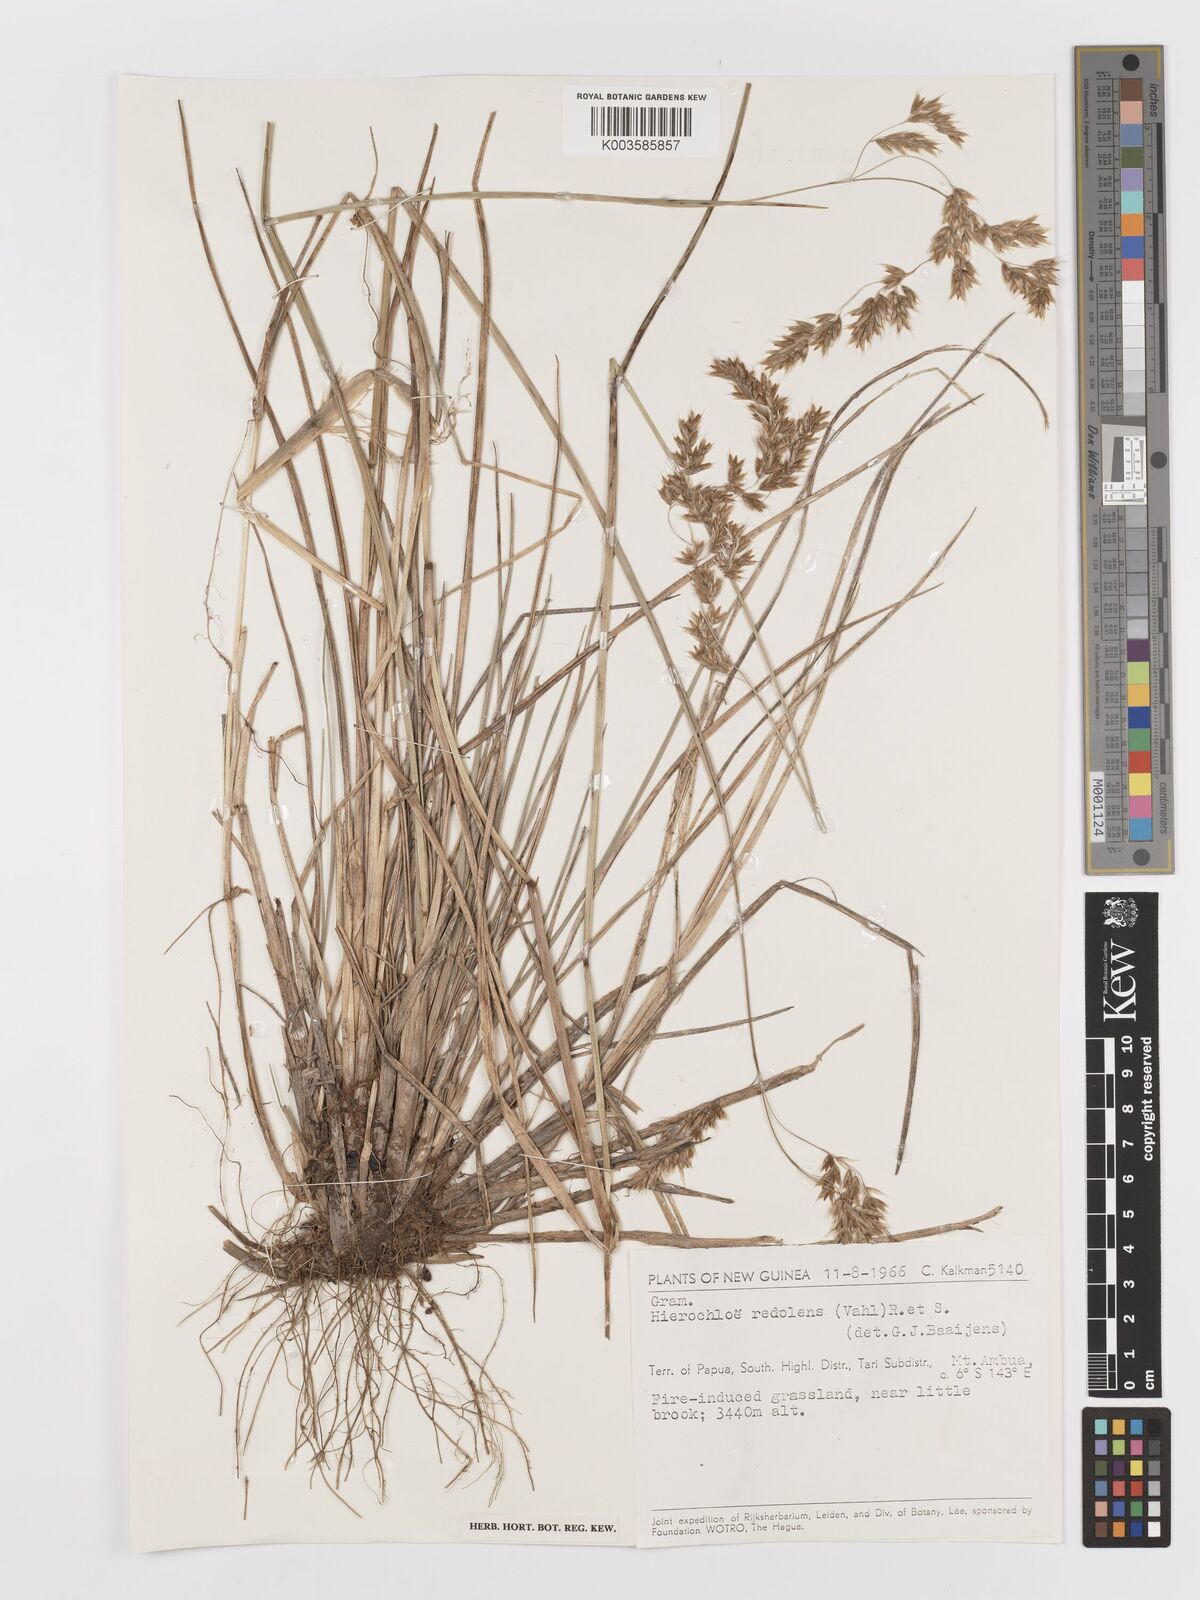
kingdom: Plantae
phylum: Tracheophyta
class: Liliopsida
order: Poales
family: Poaceae
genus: Anthoxanthum
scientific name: Anthoxanthum redolens
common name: Sweet holy grass
